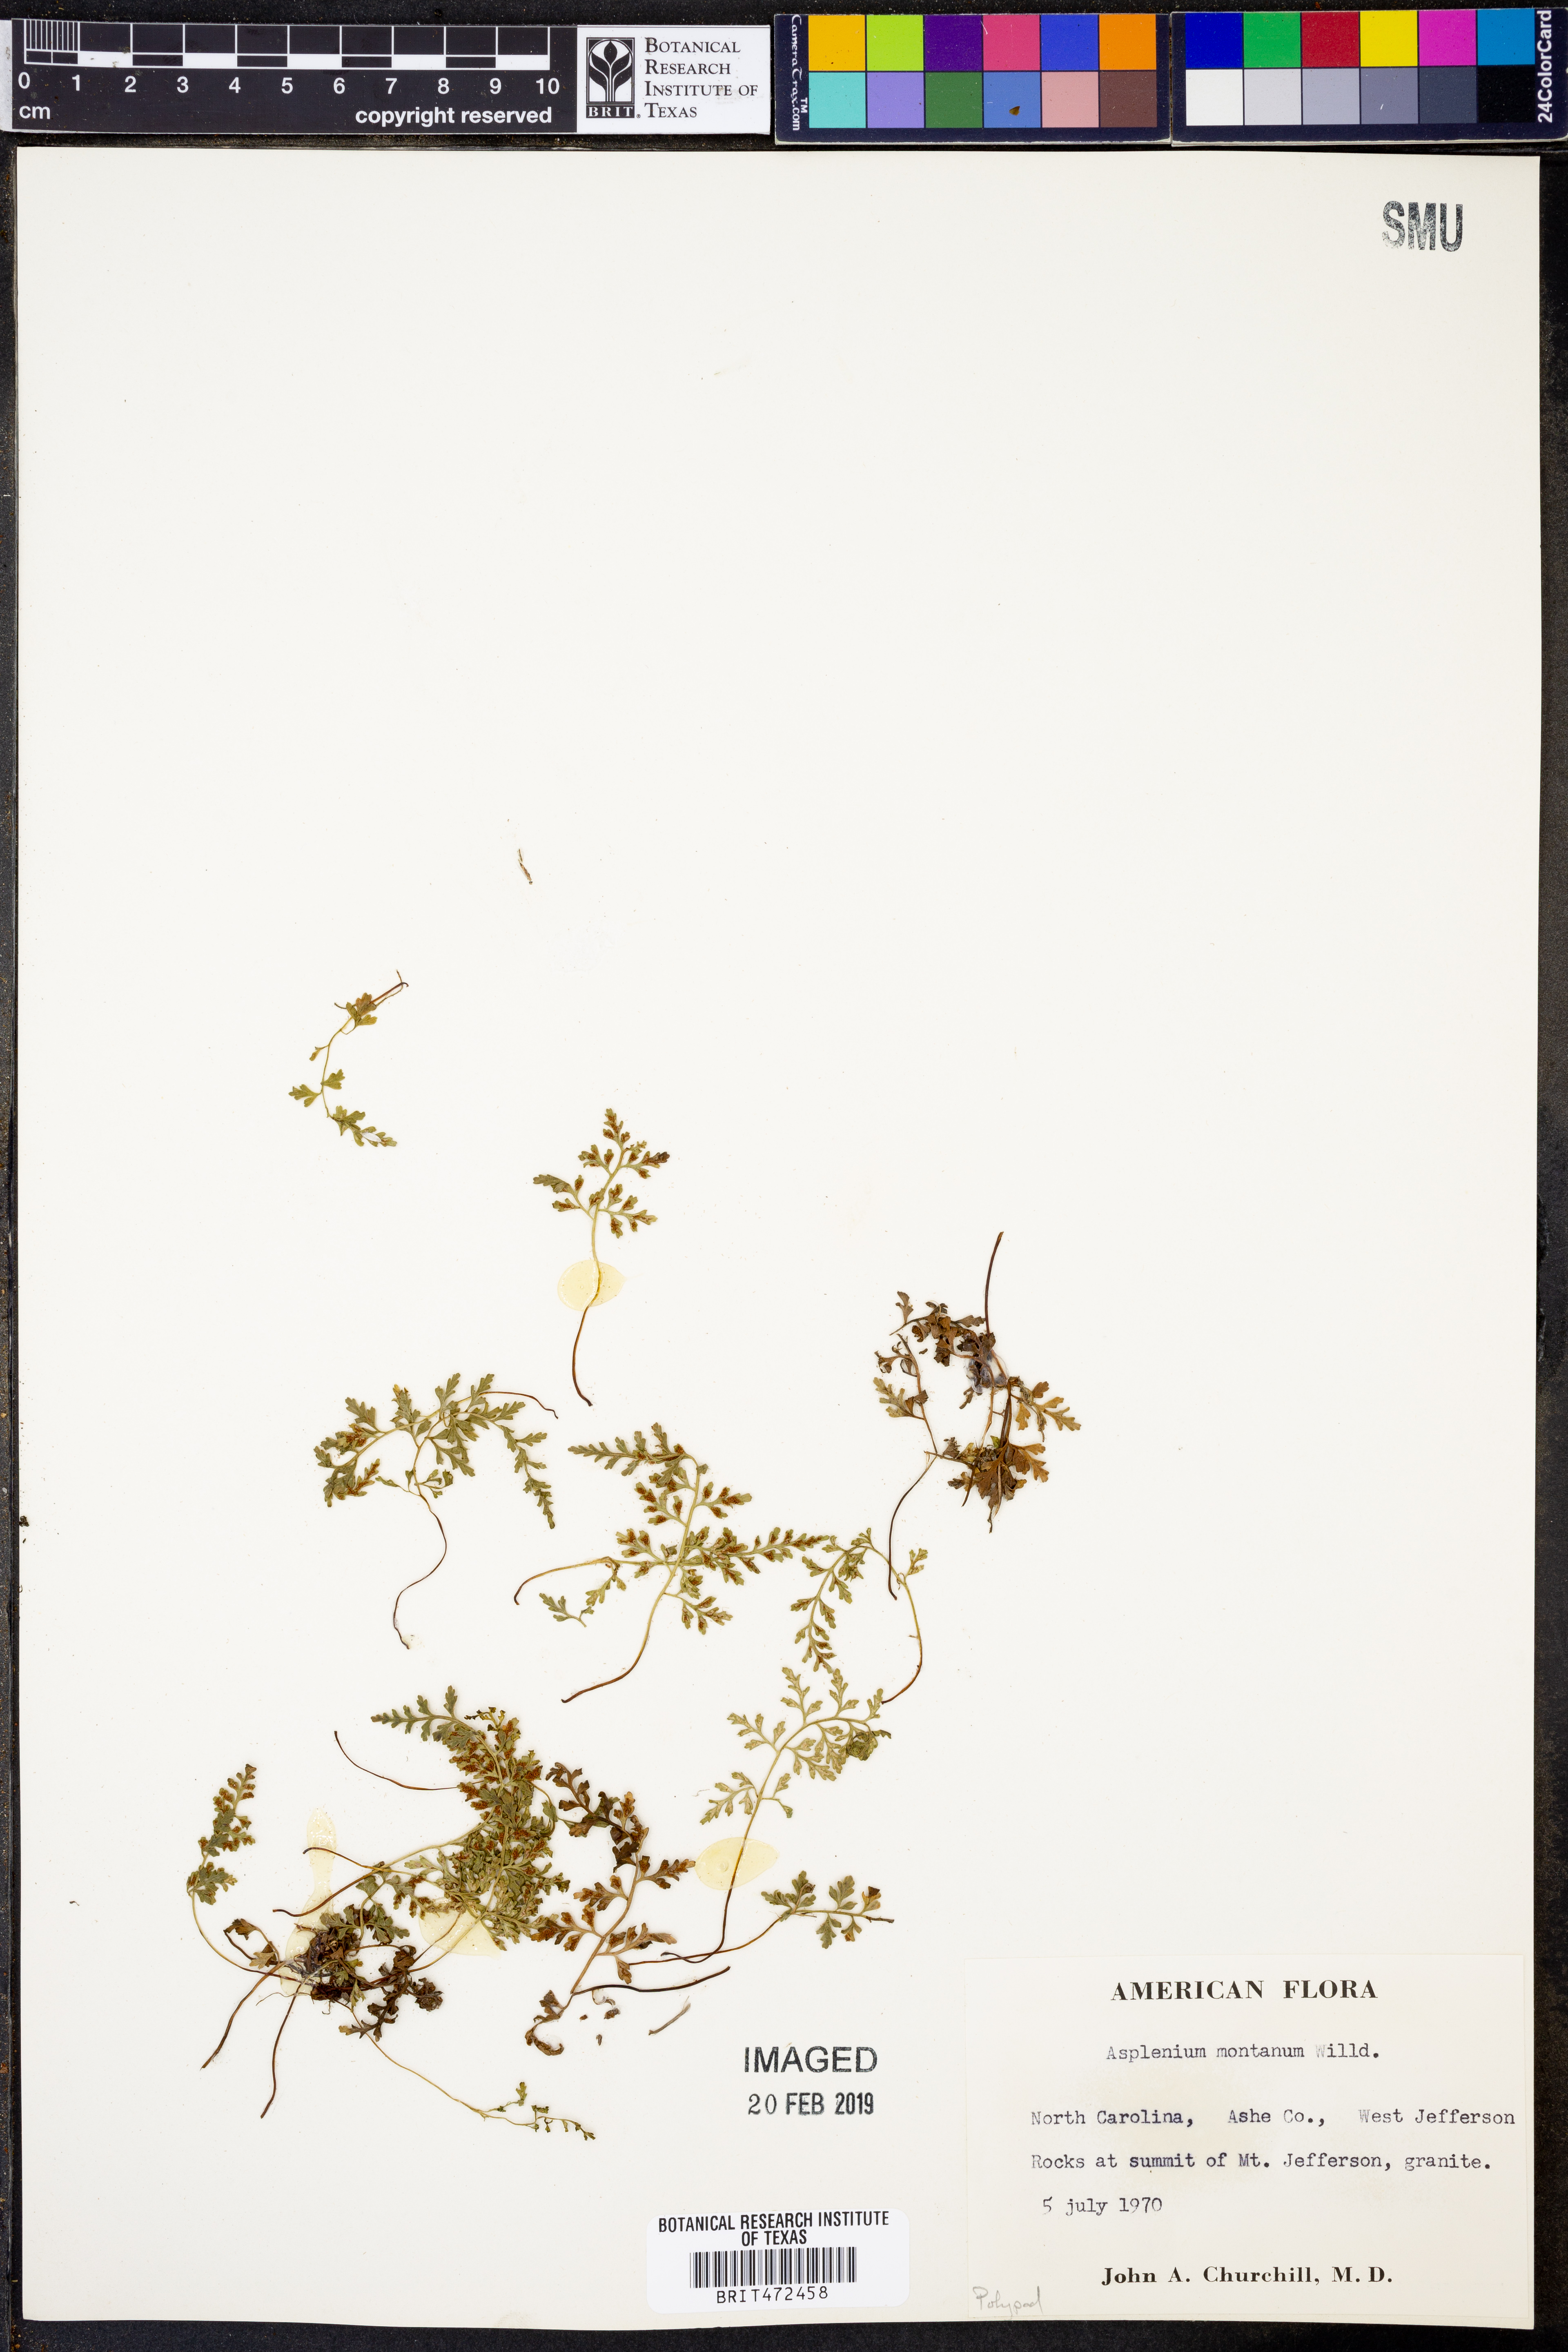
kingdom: Plantae
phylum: Tracheophyta
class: Polypodiopsida
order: Polypodiales
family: Aspleniaceae
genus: Asplenium
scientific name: Asplenium montanum
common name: Mountain spleenwort
